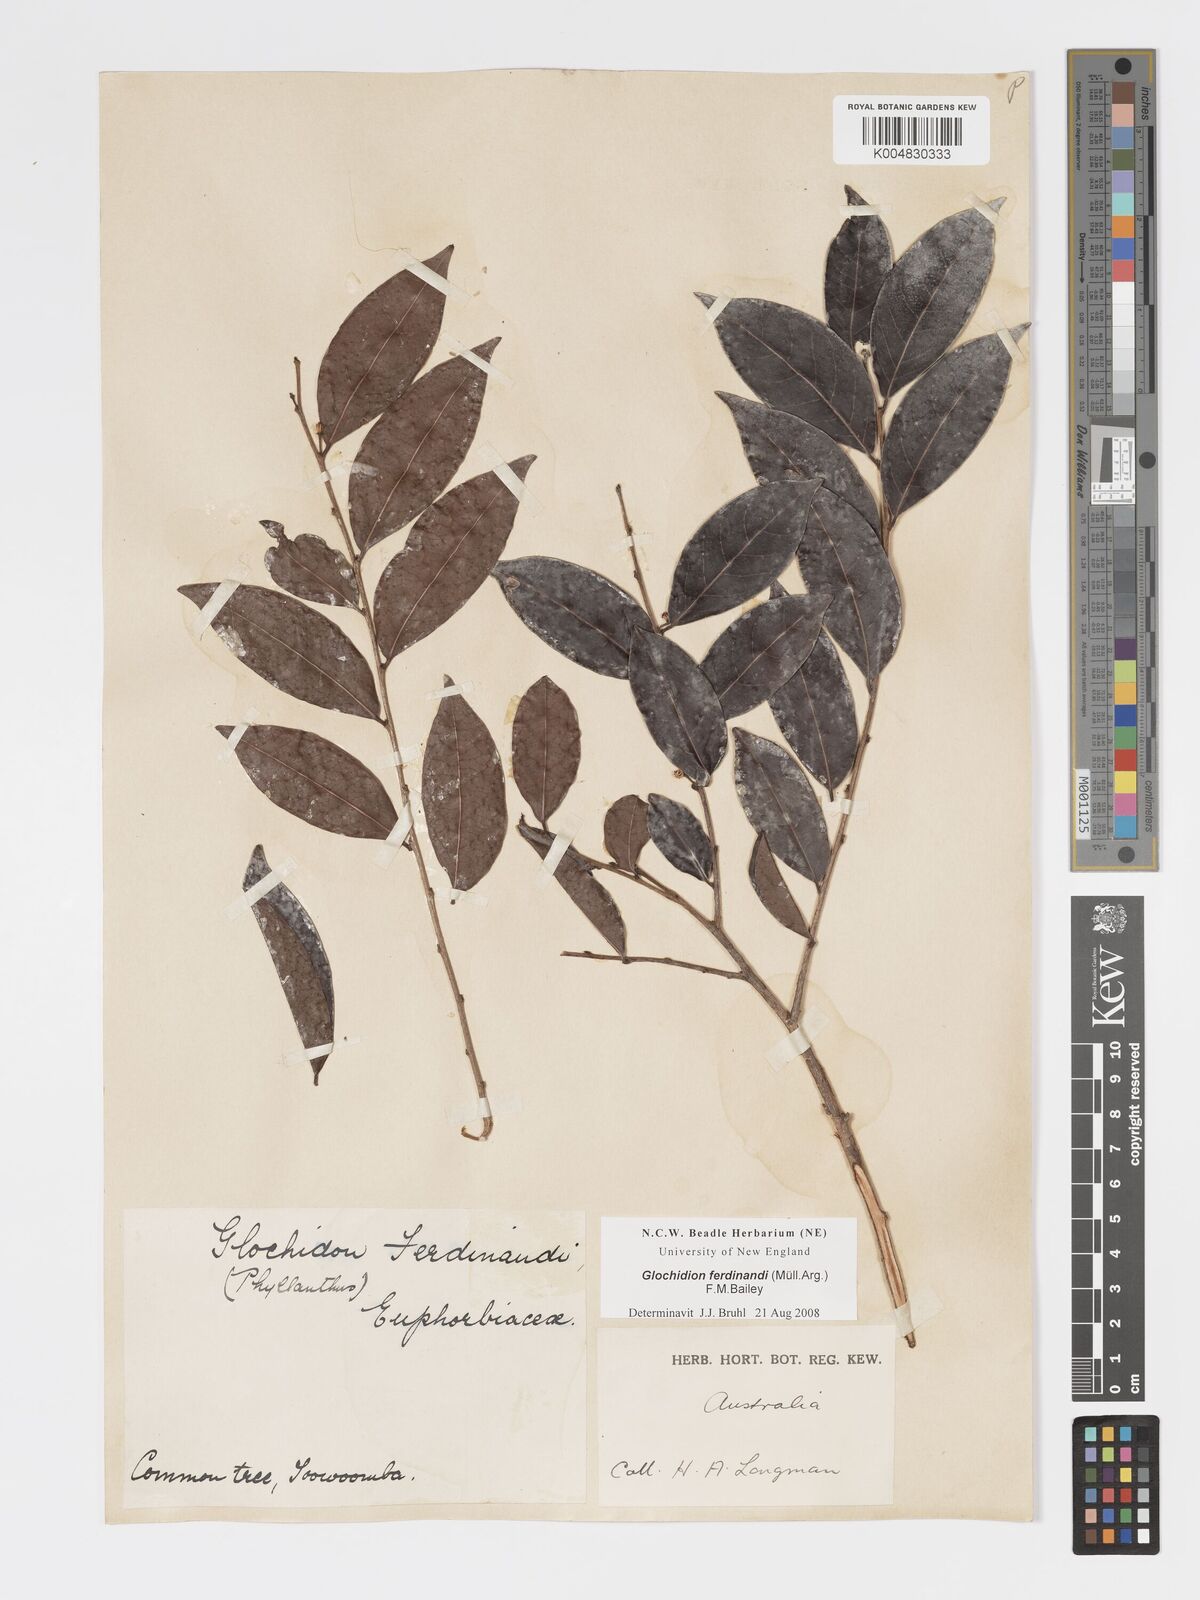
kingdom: Plantae
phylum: Tracheophyta
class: Magnoliopsida
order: Malpighiales
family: Phyllanthaceae
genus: Glochidion
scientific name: Glochidion ferdinandi
